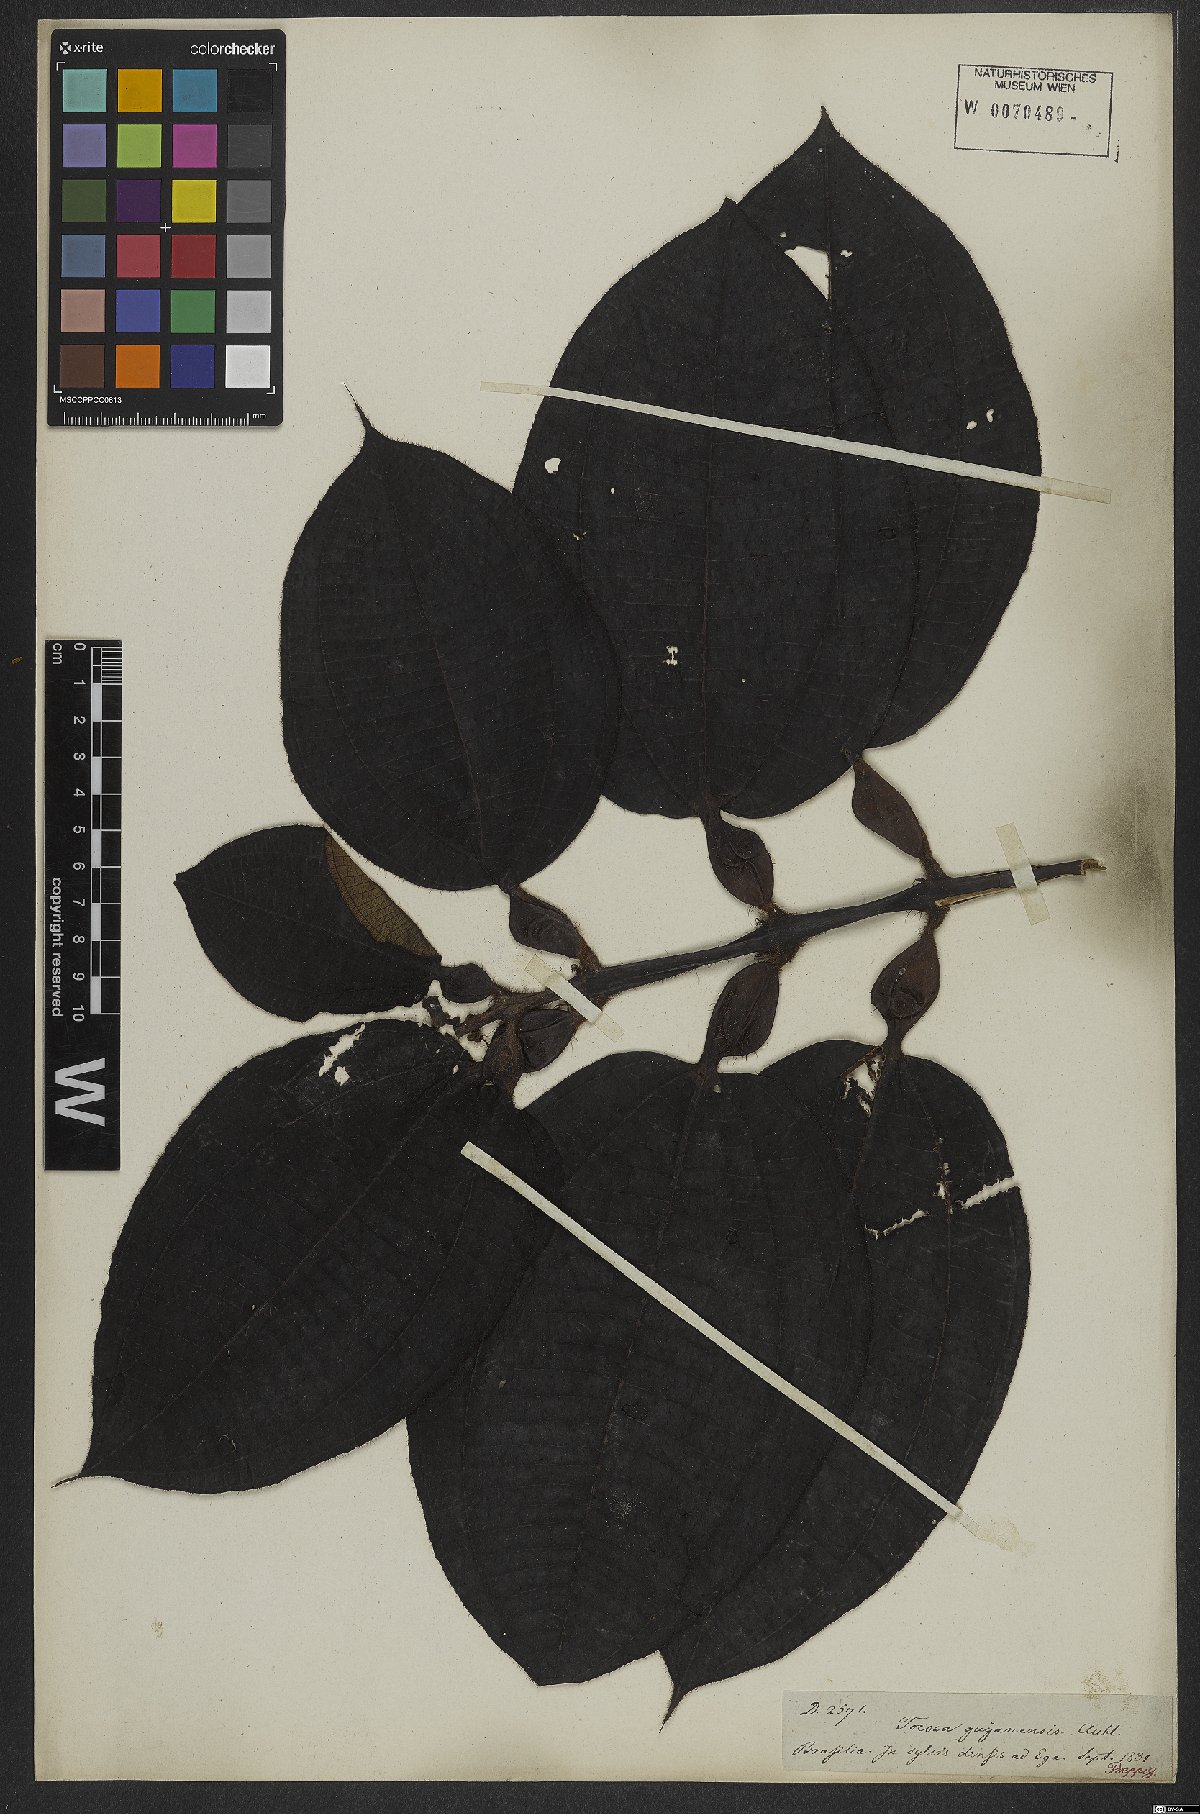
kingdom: Plantae
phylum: Tracheophyta
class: Magnoliopsida
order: Myrtales
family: Melastomataceae
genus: Miconia
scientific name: Miconia tococa
